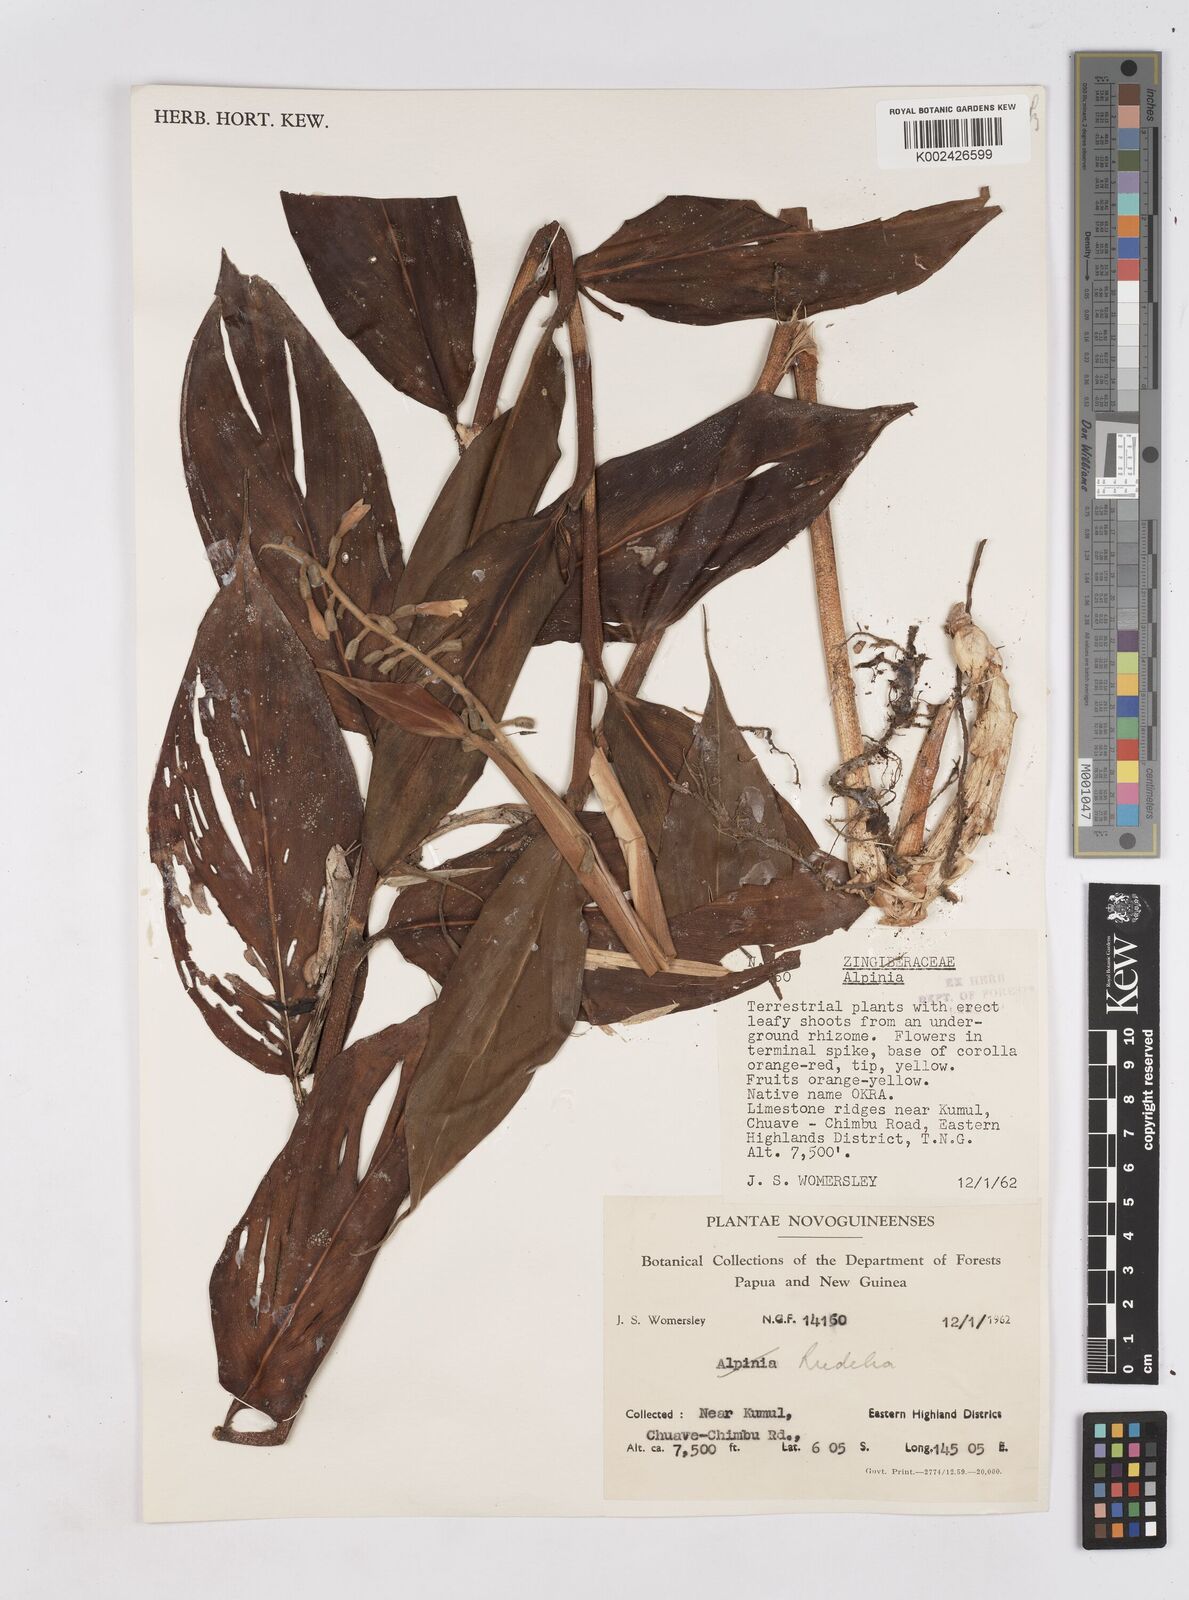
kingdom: Plantae
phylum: Tracheophyta
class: Liliopsida
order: Zingiberales
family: Zingiberaceae
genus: Riedelia
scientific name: Riedelia
